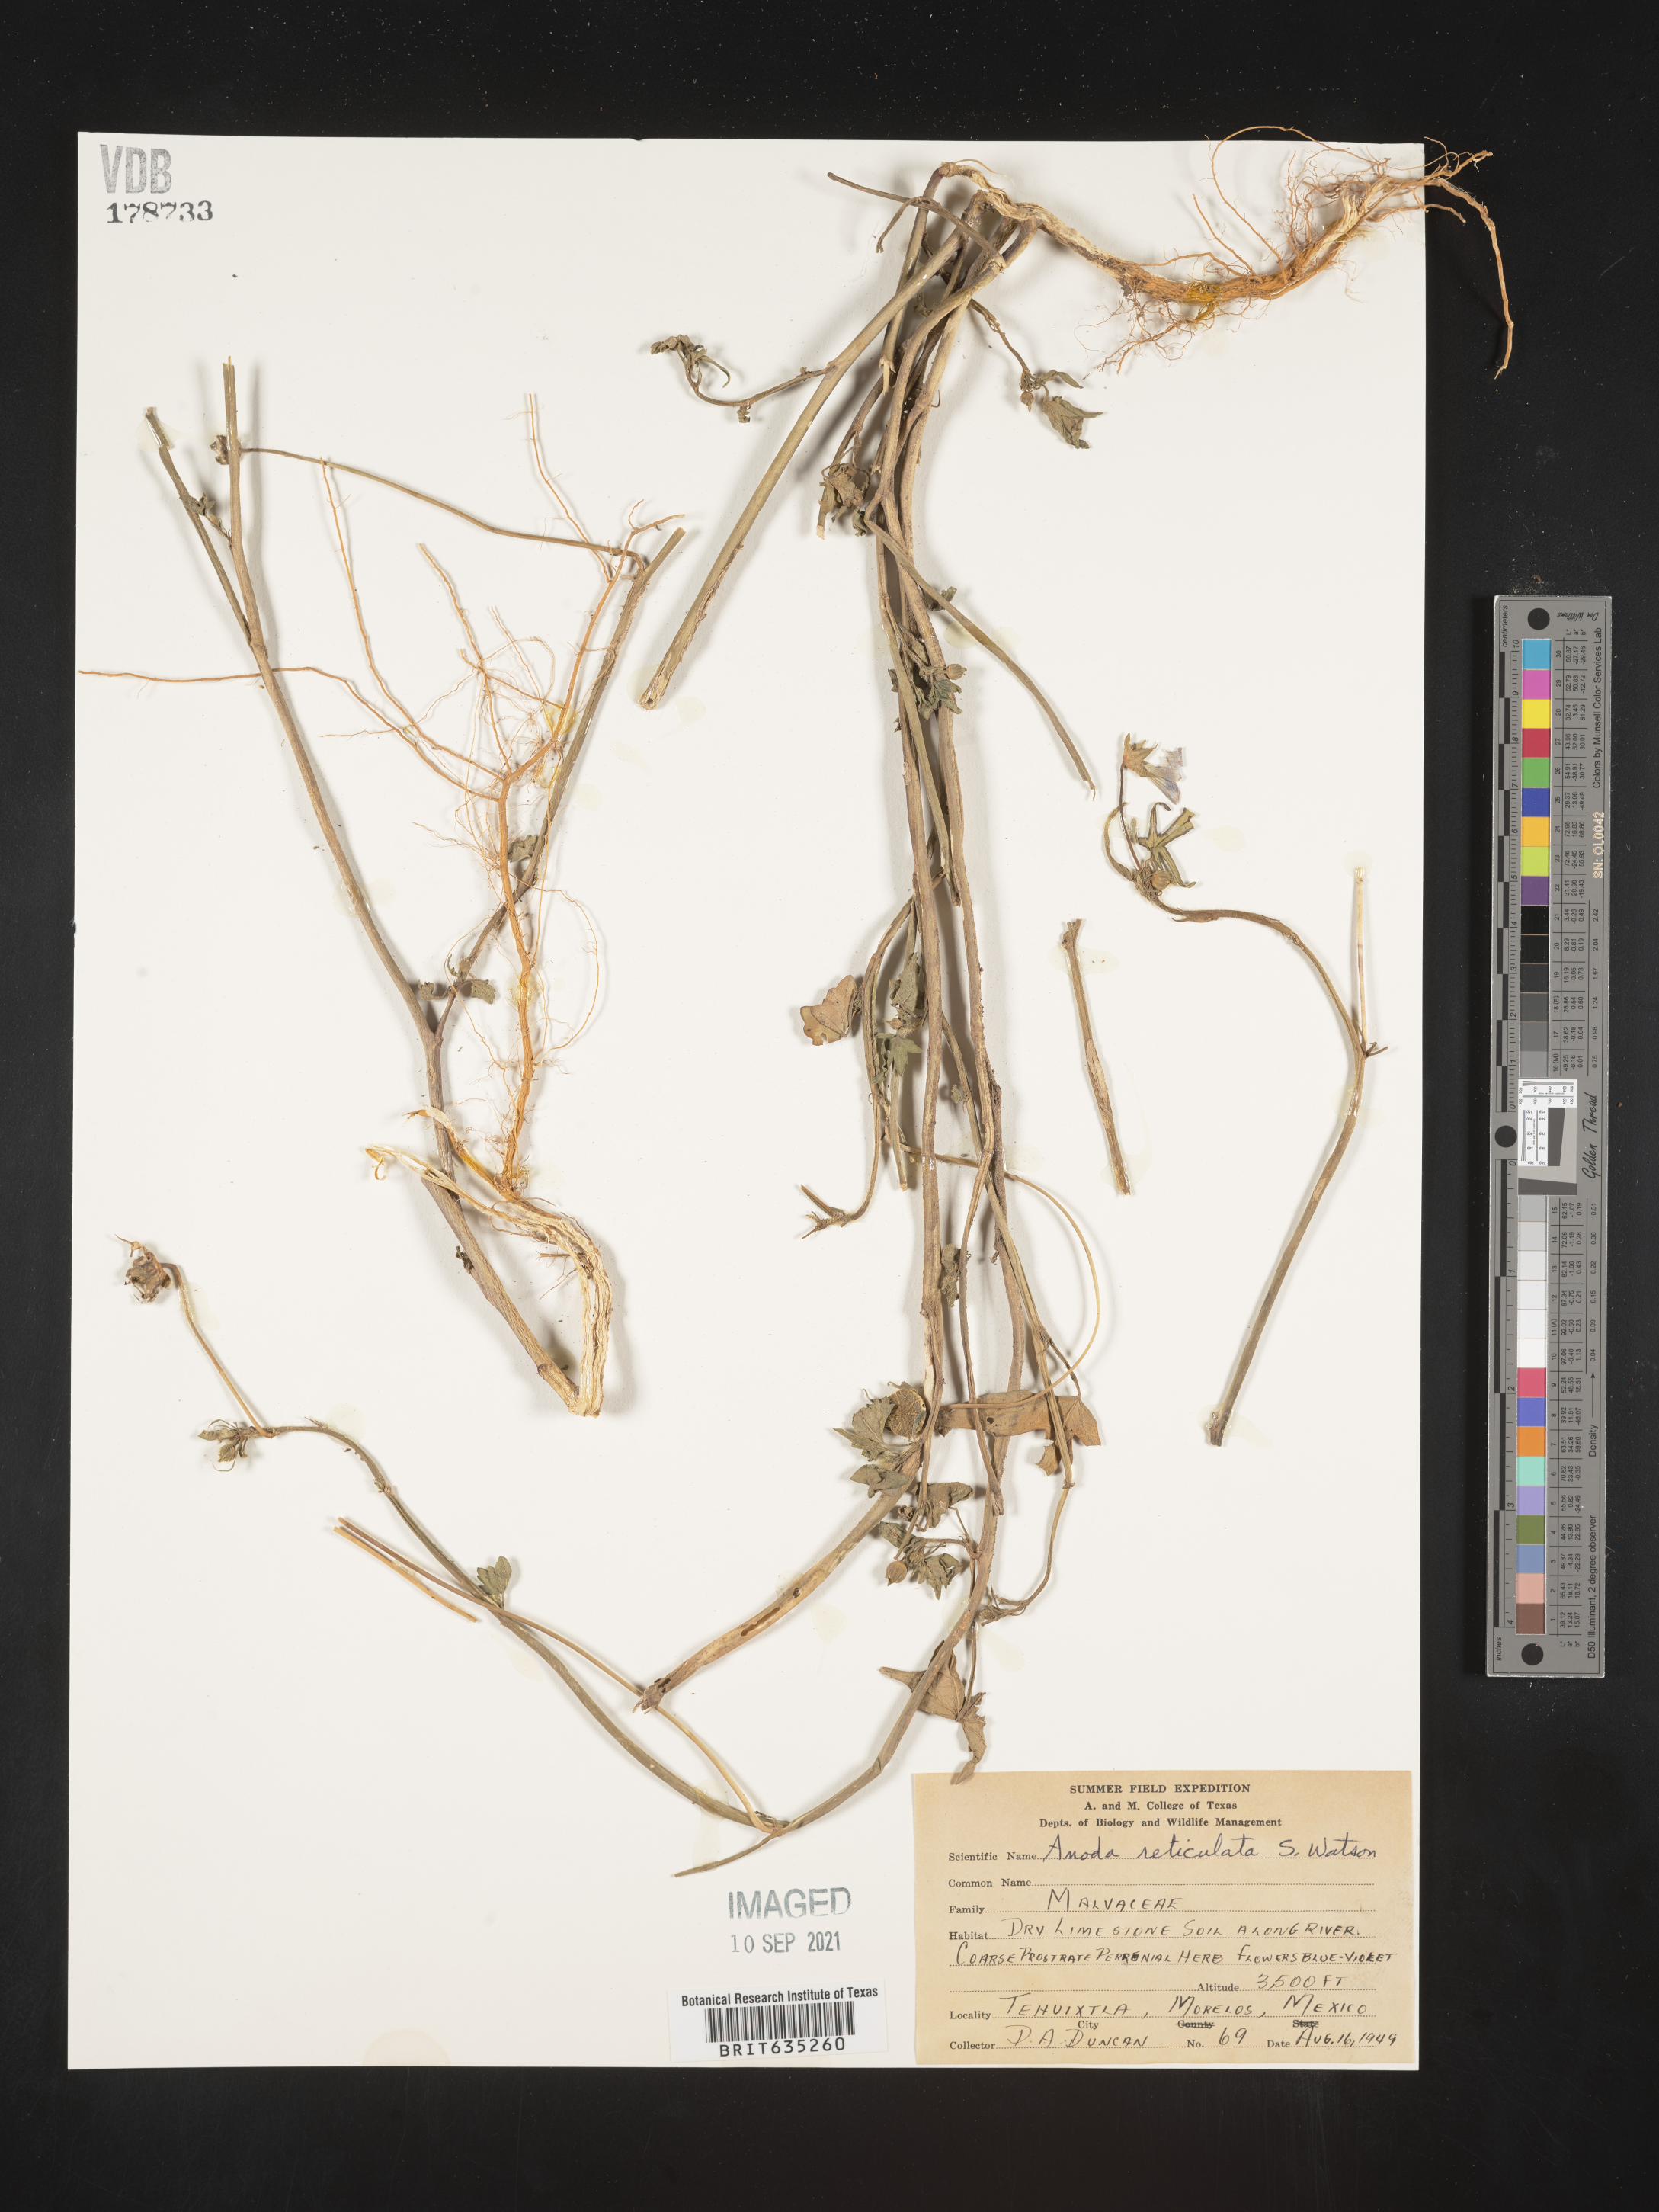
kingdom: Plantae
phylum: Tracheophyta
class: Magnoliopsida
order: Malvales
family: Malvaceae
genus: Anoda
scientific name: Anoda
